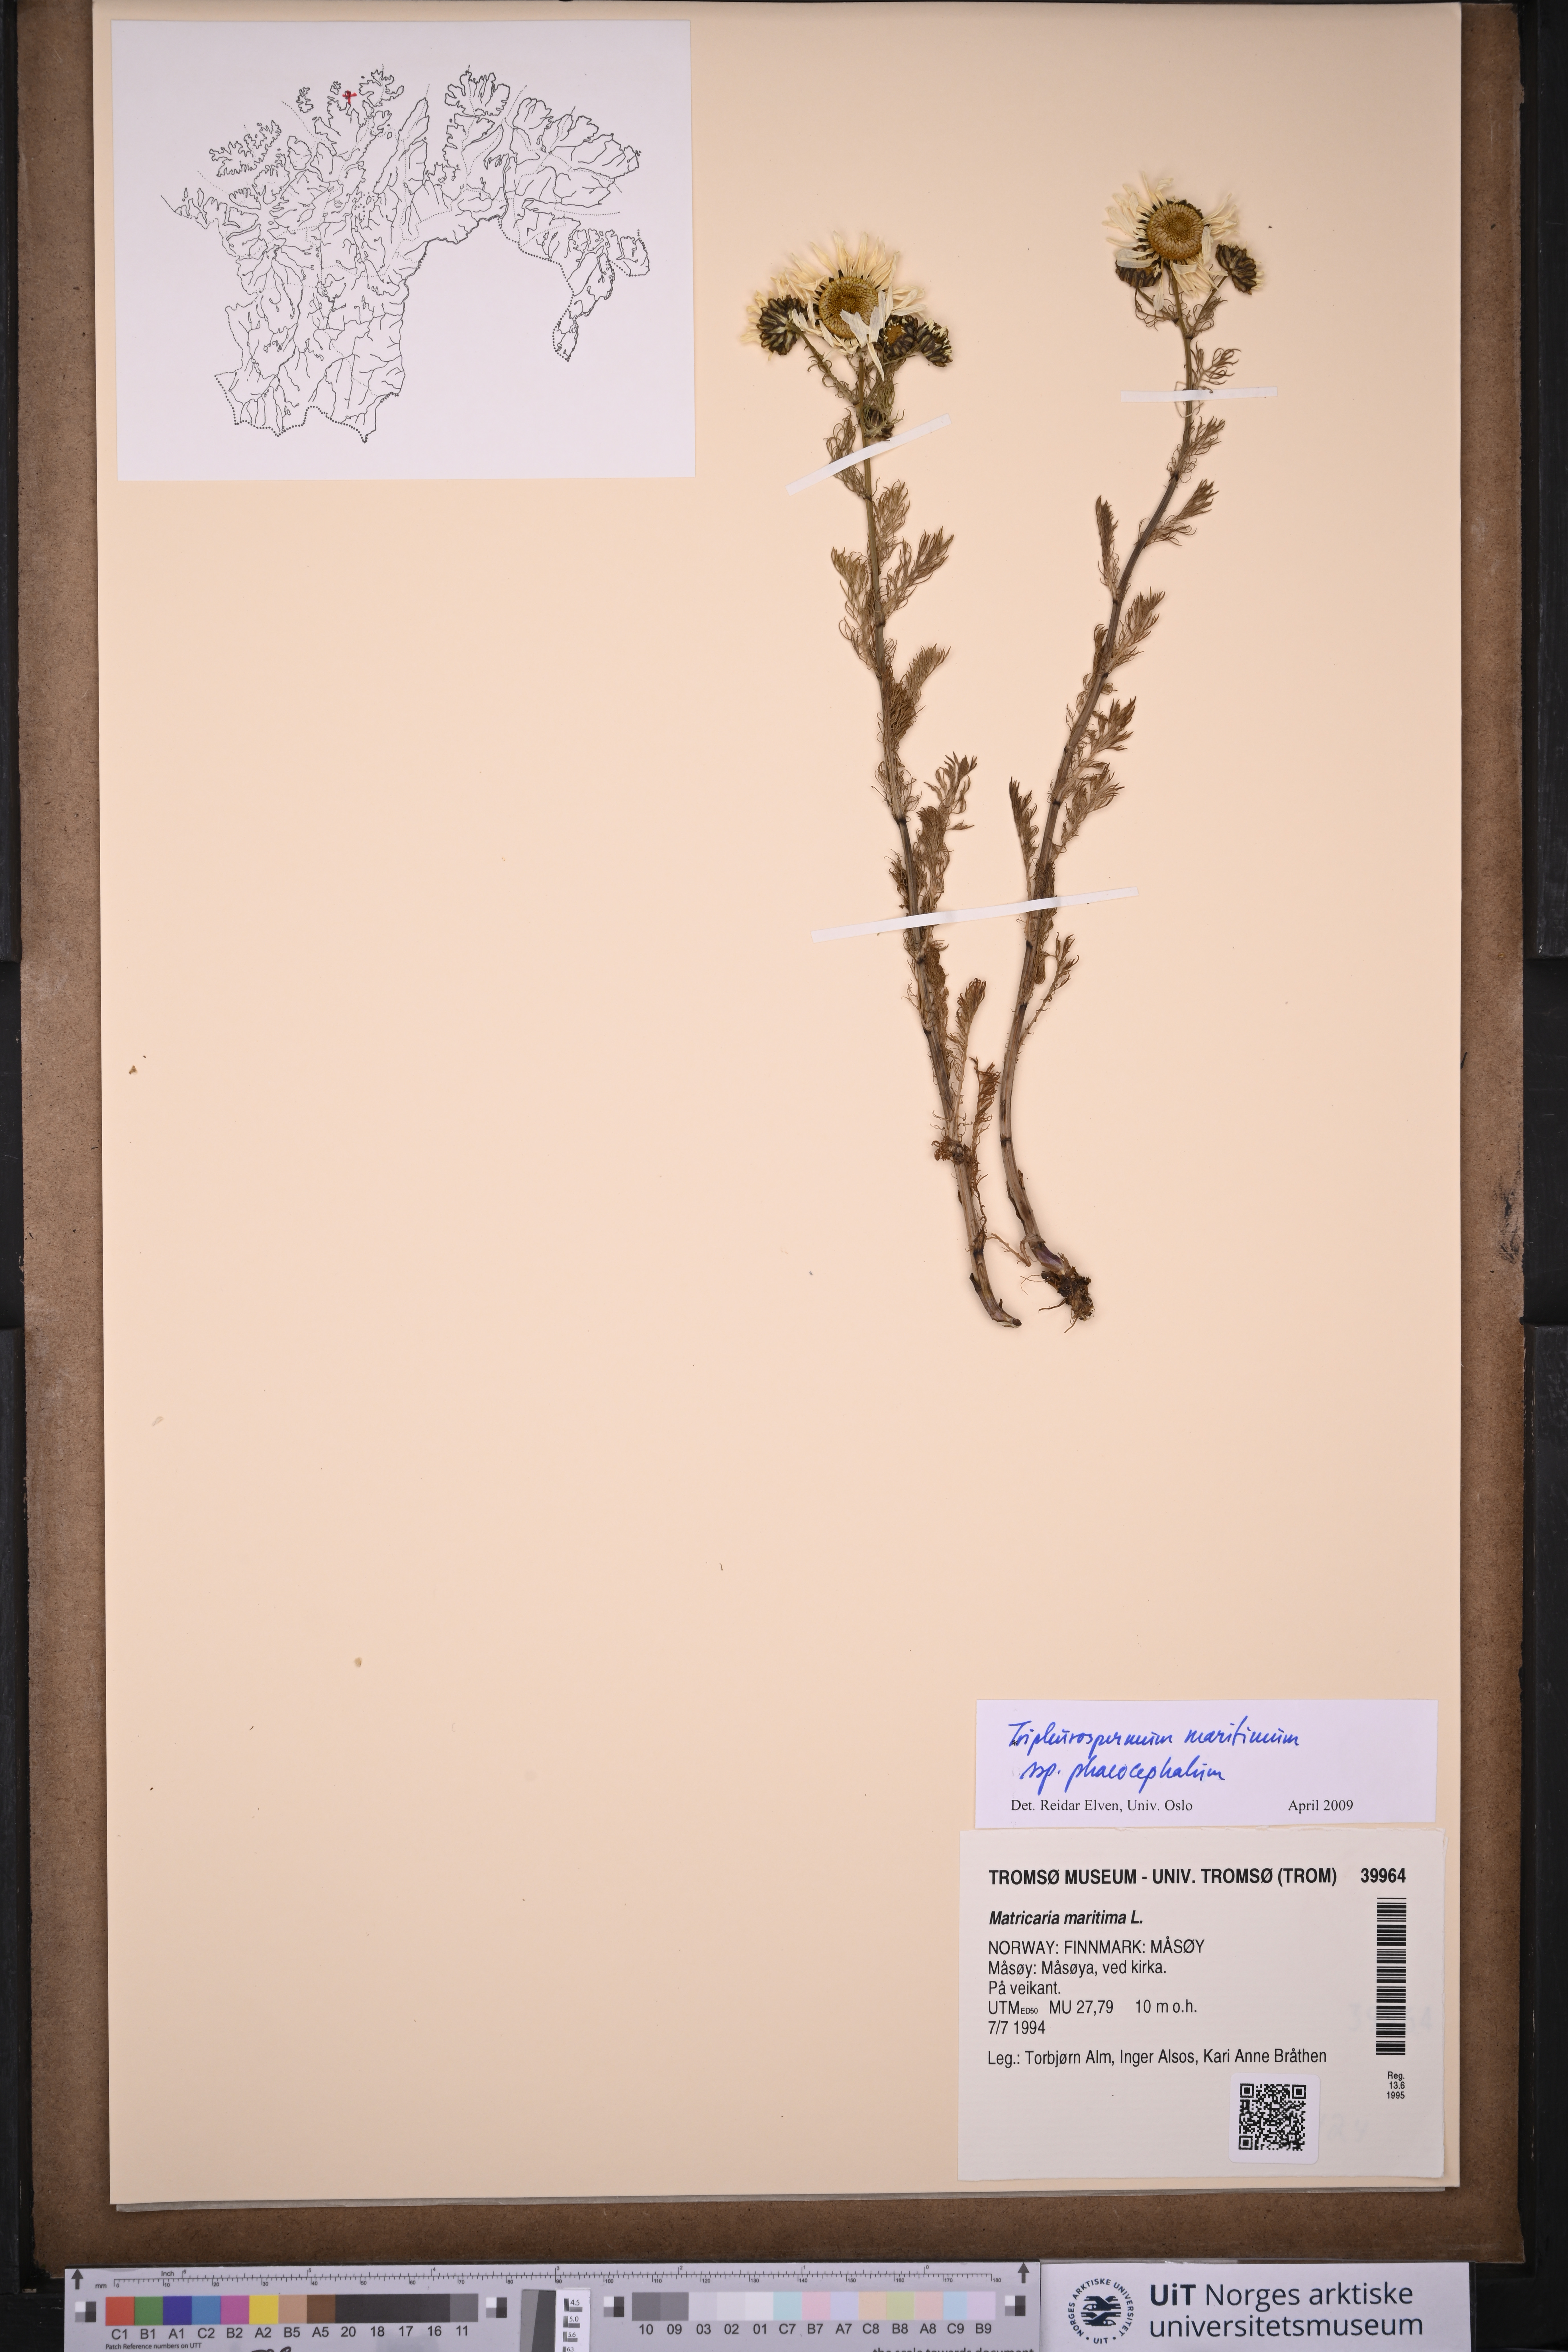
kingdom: Plantae
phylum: Tracheophyta
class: Magnoliopsida
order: Asterales
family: Asteraceae
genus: Tripleurospermum
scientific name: Tripleurospermum hookeri
